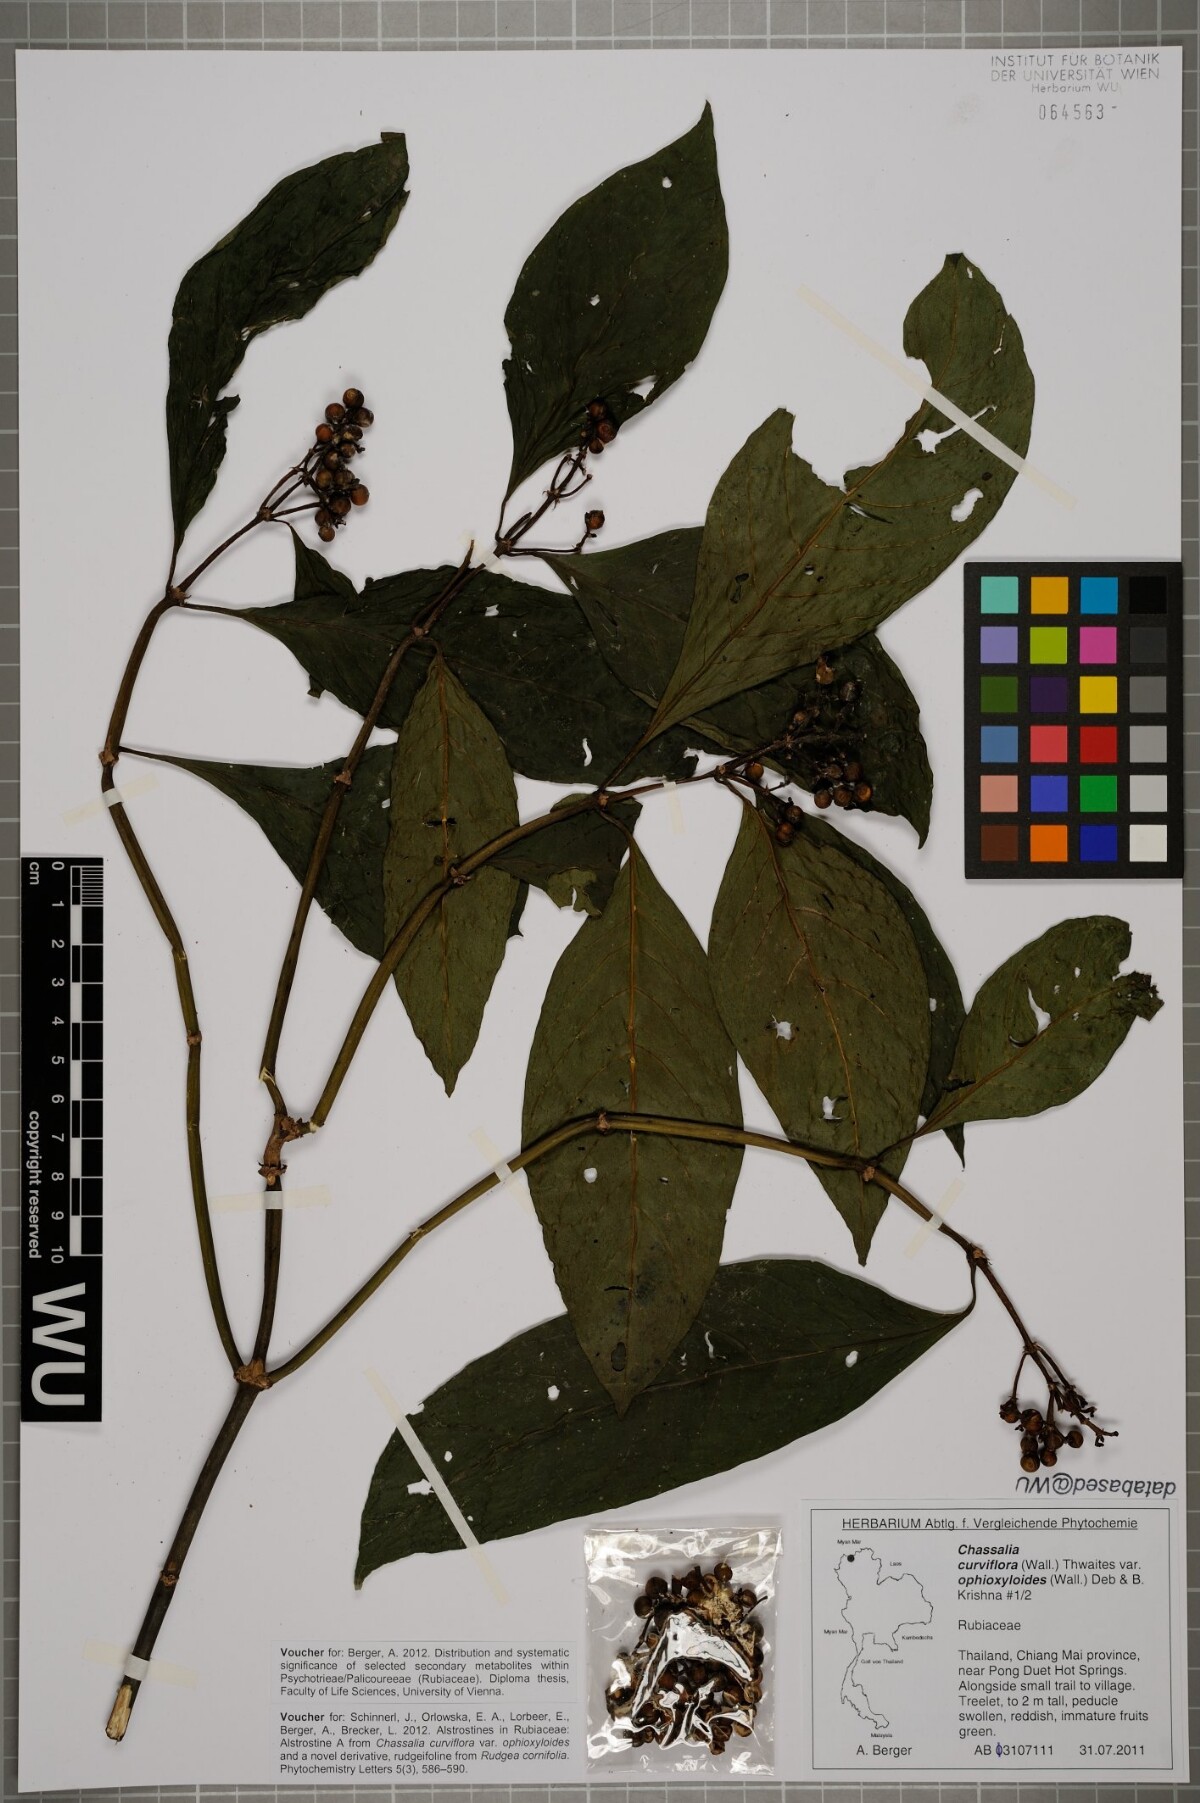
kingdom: Plantae
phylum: Tracheophyta
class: Magnoliopsida
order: Gentianales
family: Rubiaceae
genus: Chassalia
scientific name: Chassalia curviflora
